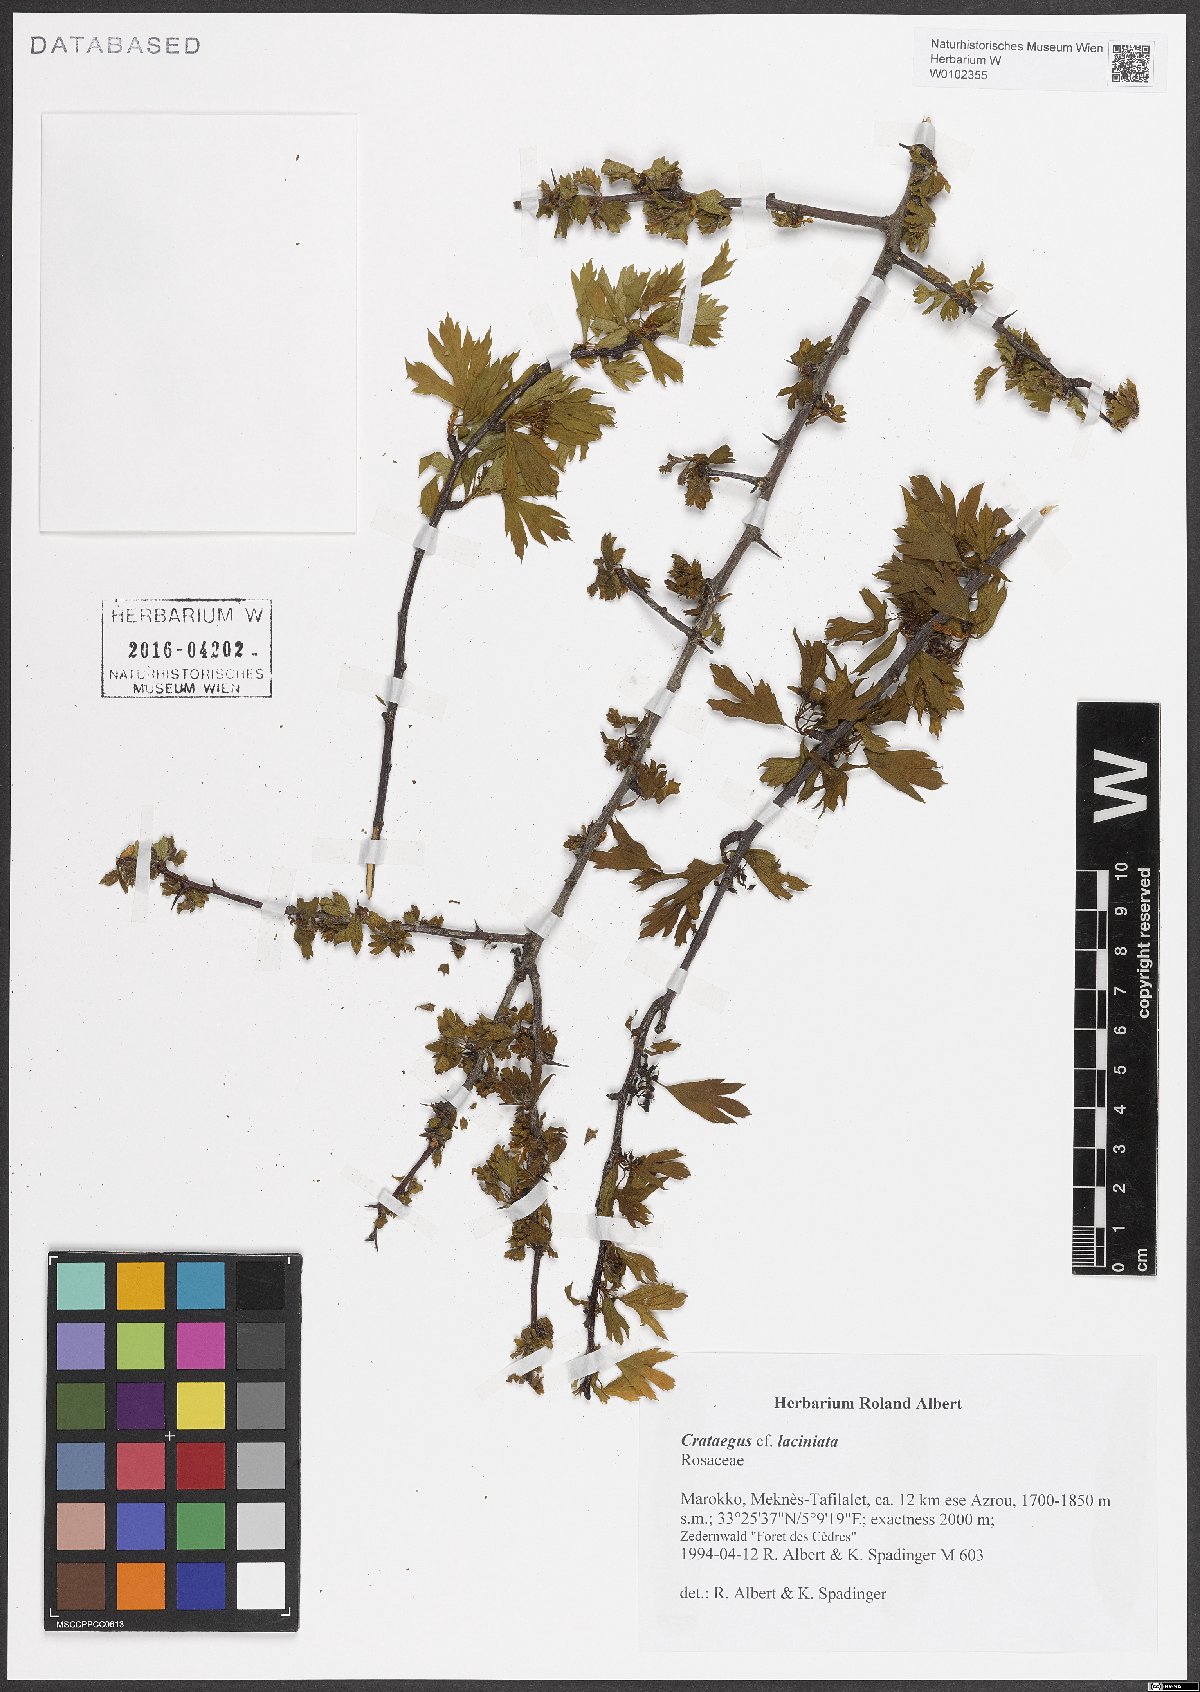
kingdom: Plantae
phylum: Tracheophyta
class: Magnoliopsida
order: Rosales
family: Rosaceae
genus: Crataegus
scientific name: Crataegus laciniata
